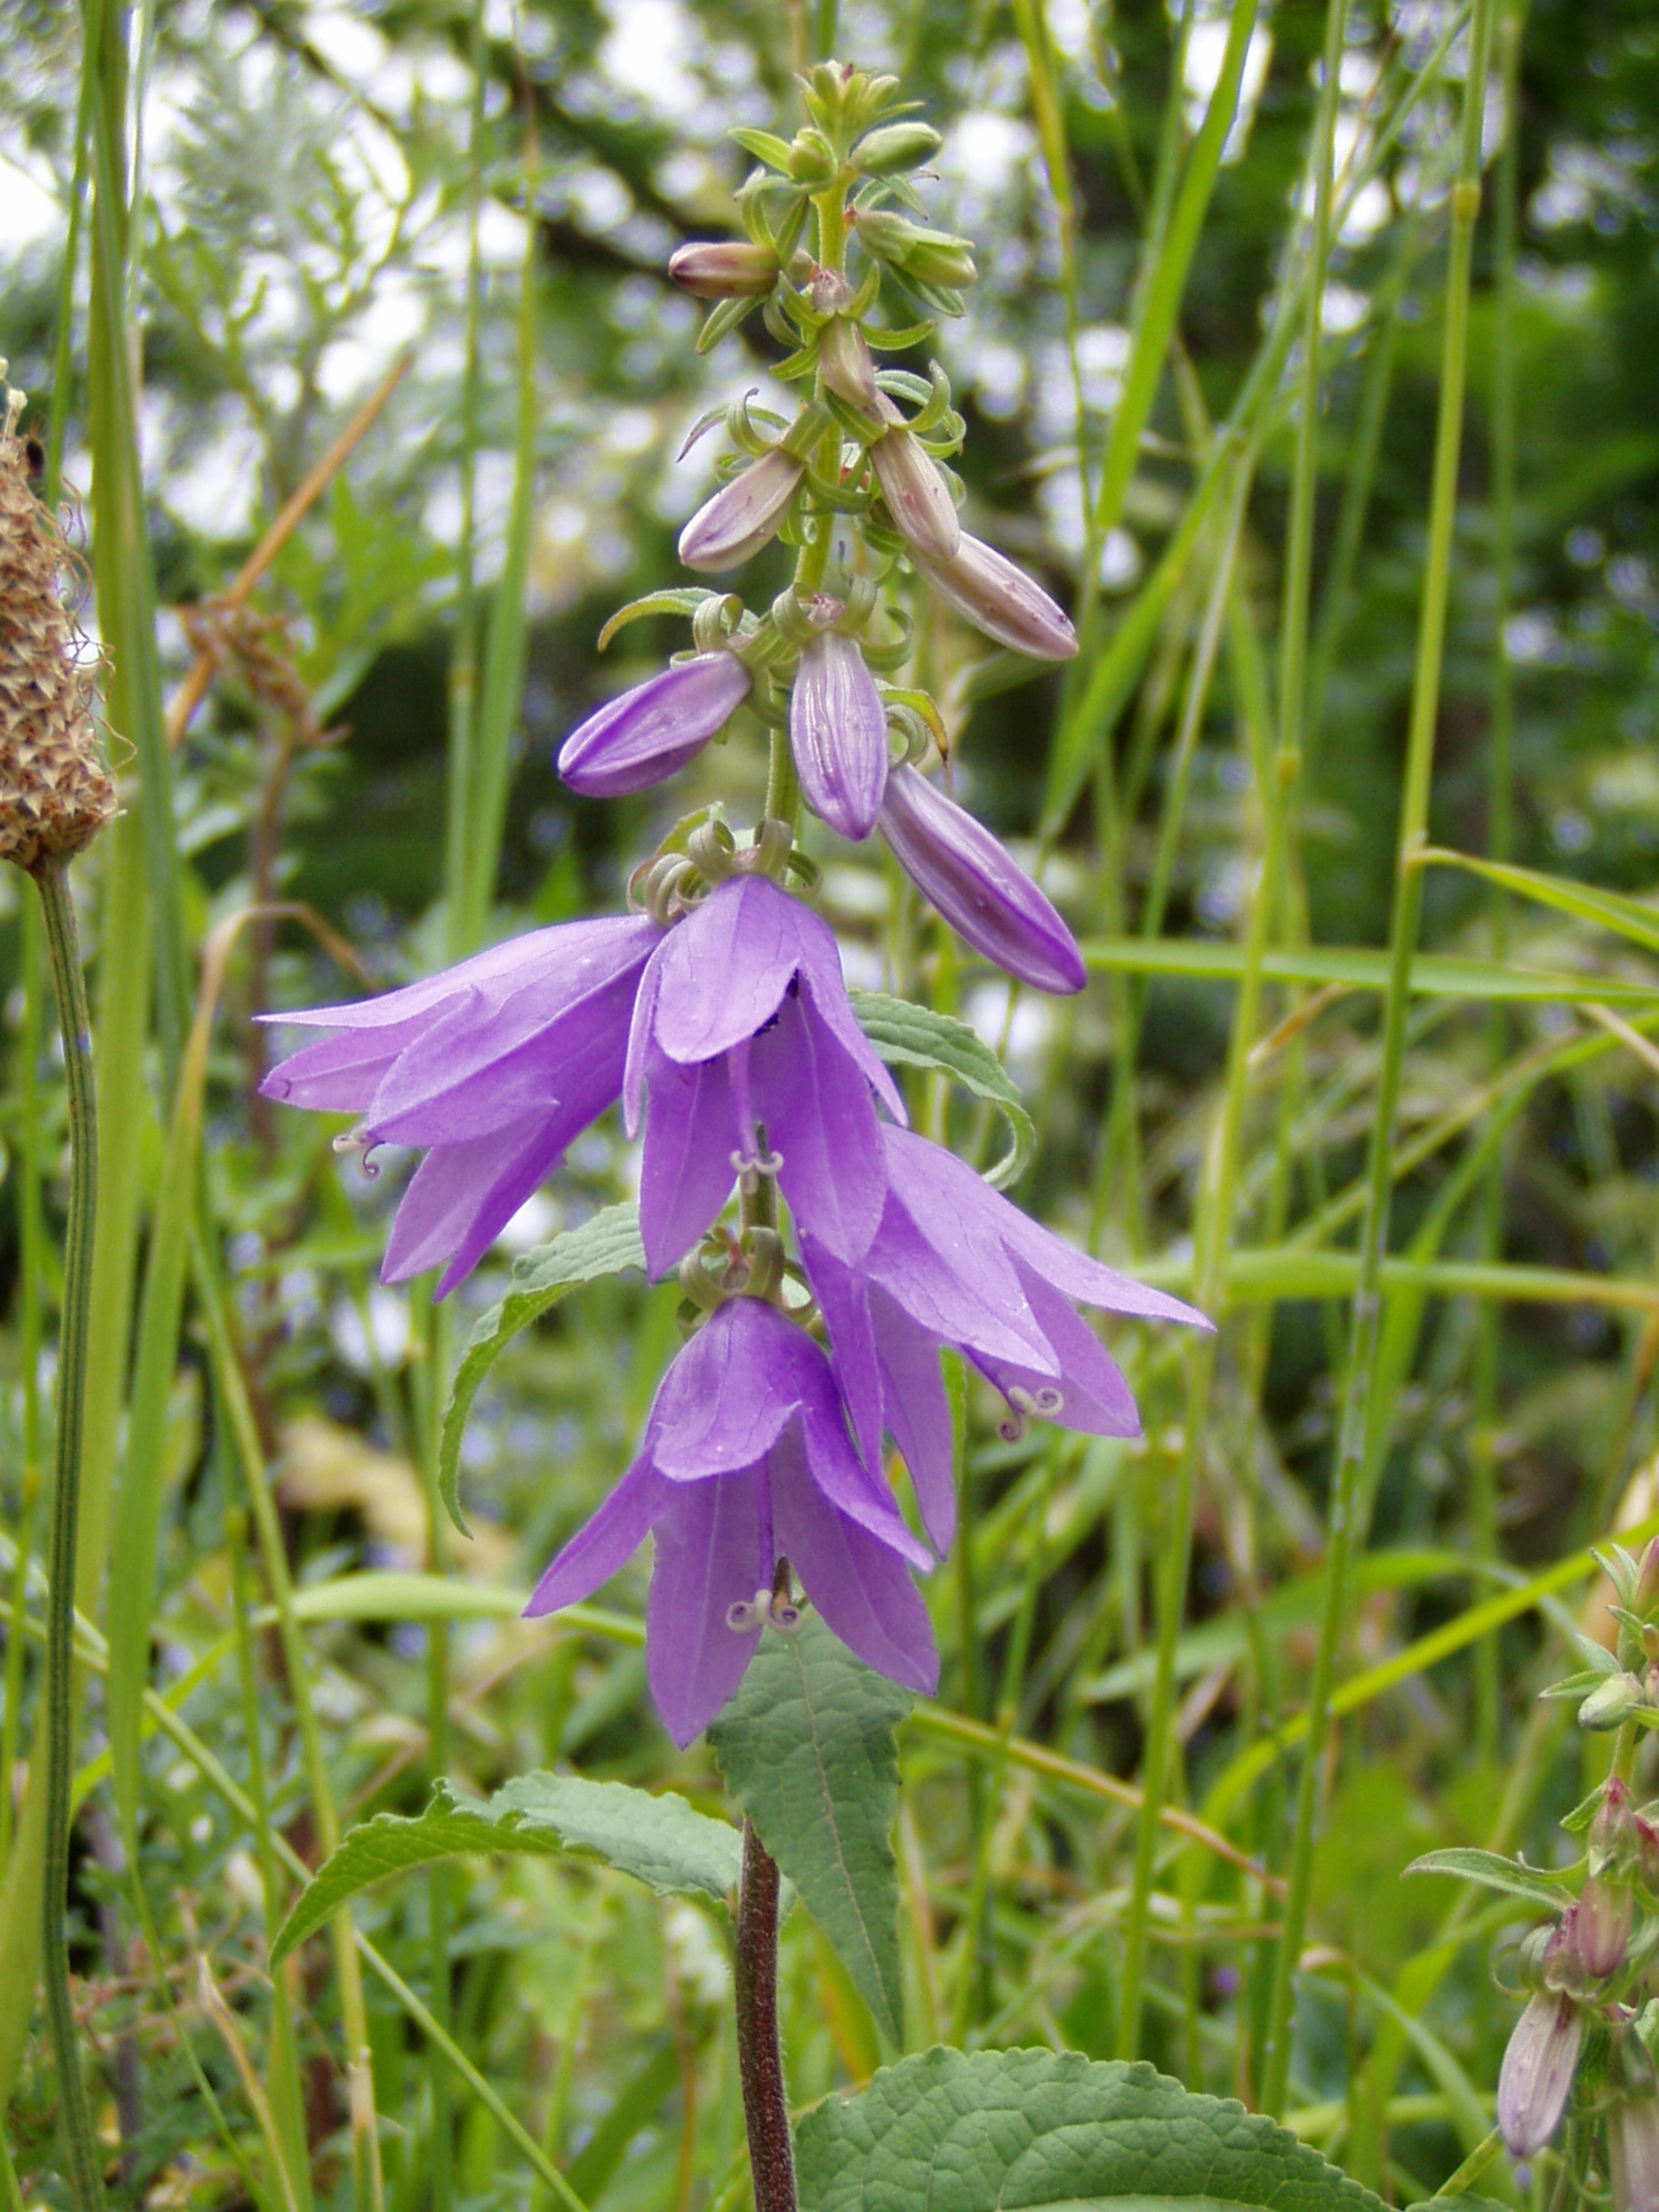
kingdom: Plantae
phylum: Tracheophyta
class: Magnoliopsida
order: Asterales
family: Campanulaceae
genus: Campanula
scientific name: Campanula rapunculoides
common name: Ensidig klokke
